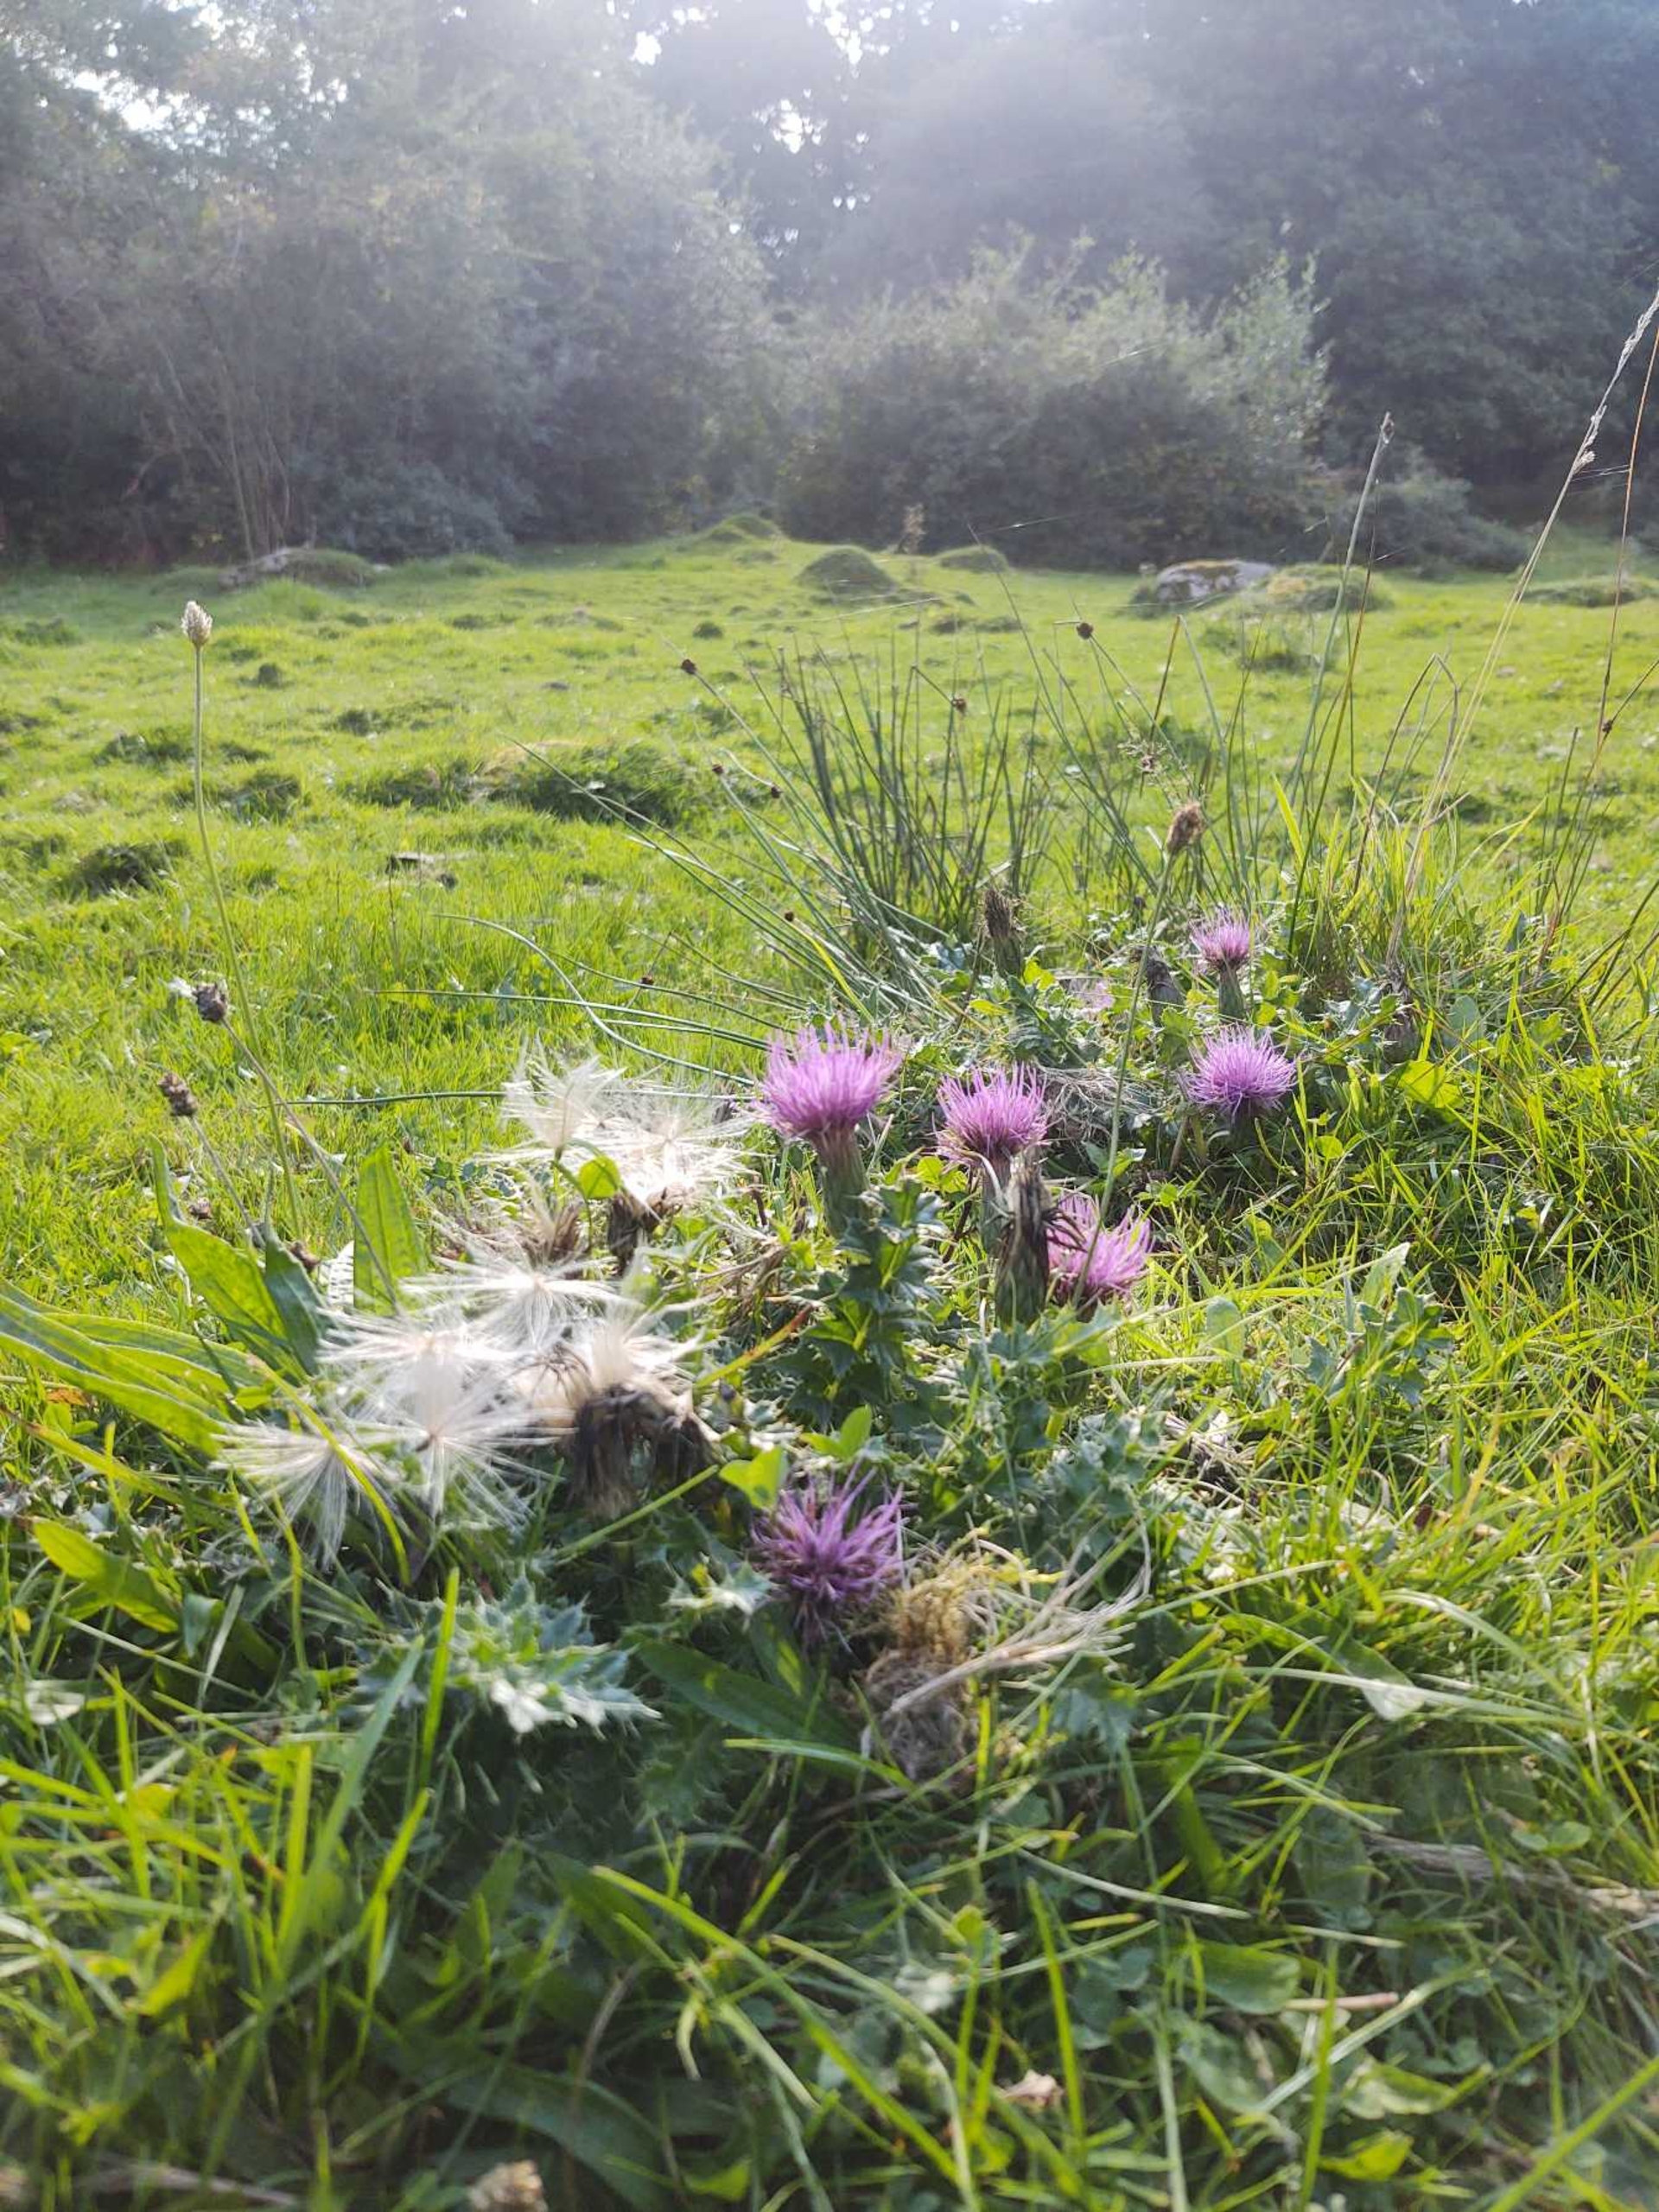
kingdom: Plantae
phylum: Tracheophyta
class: Magnoliopsida
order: Asterales
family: Asteraceae
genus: Cirsium
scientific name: Cirsium acaule
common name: Lav tidsel
